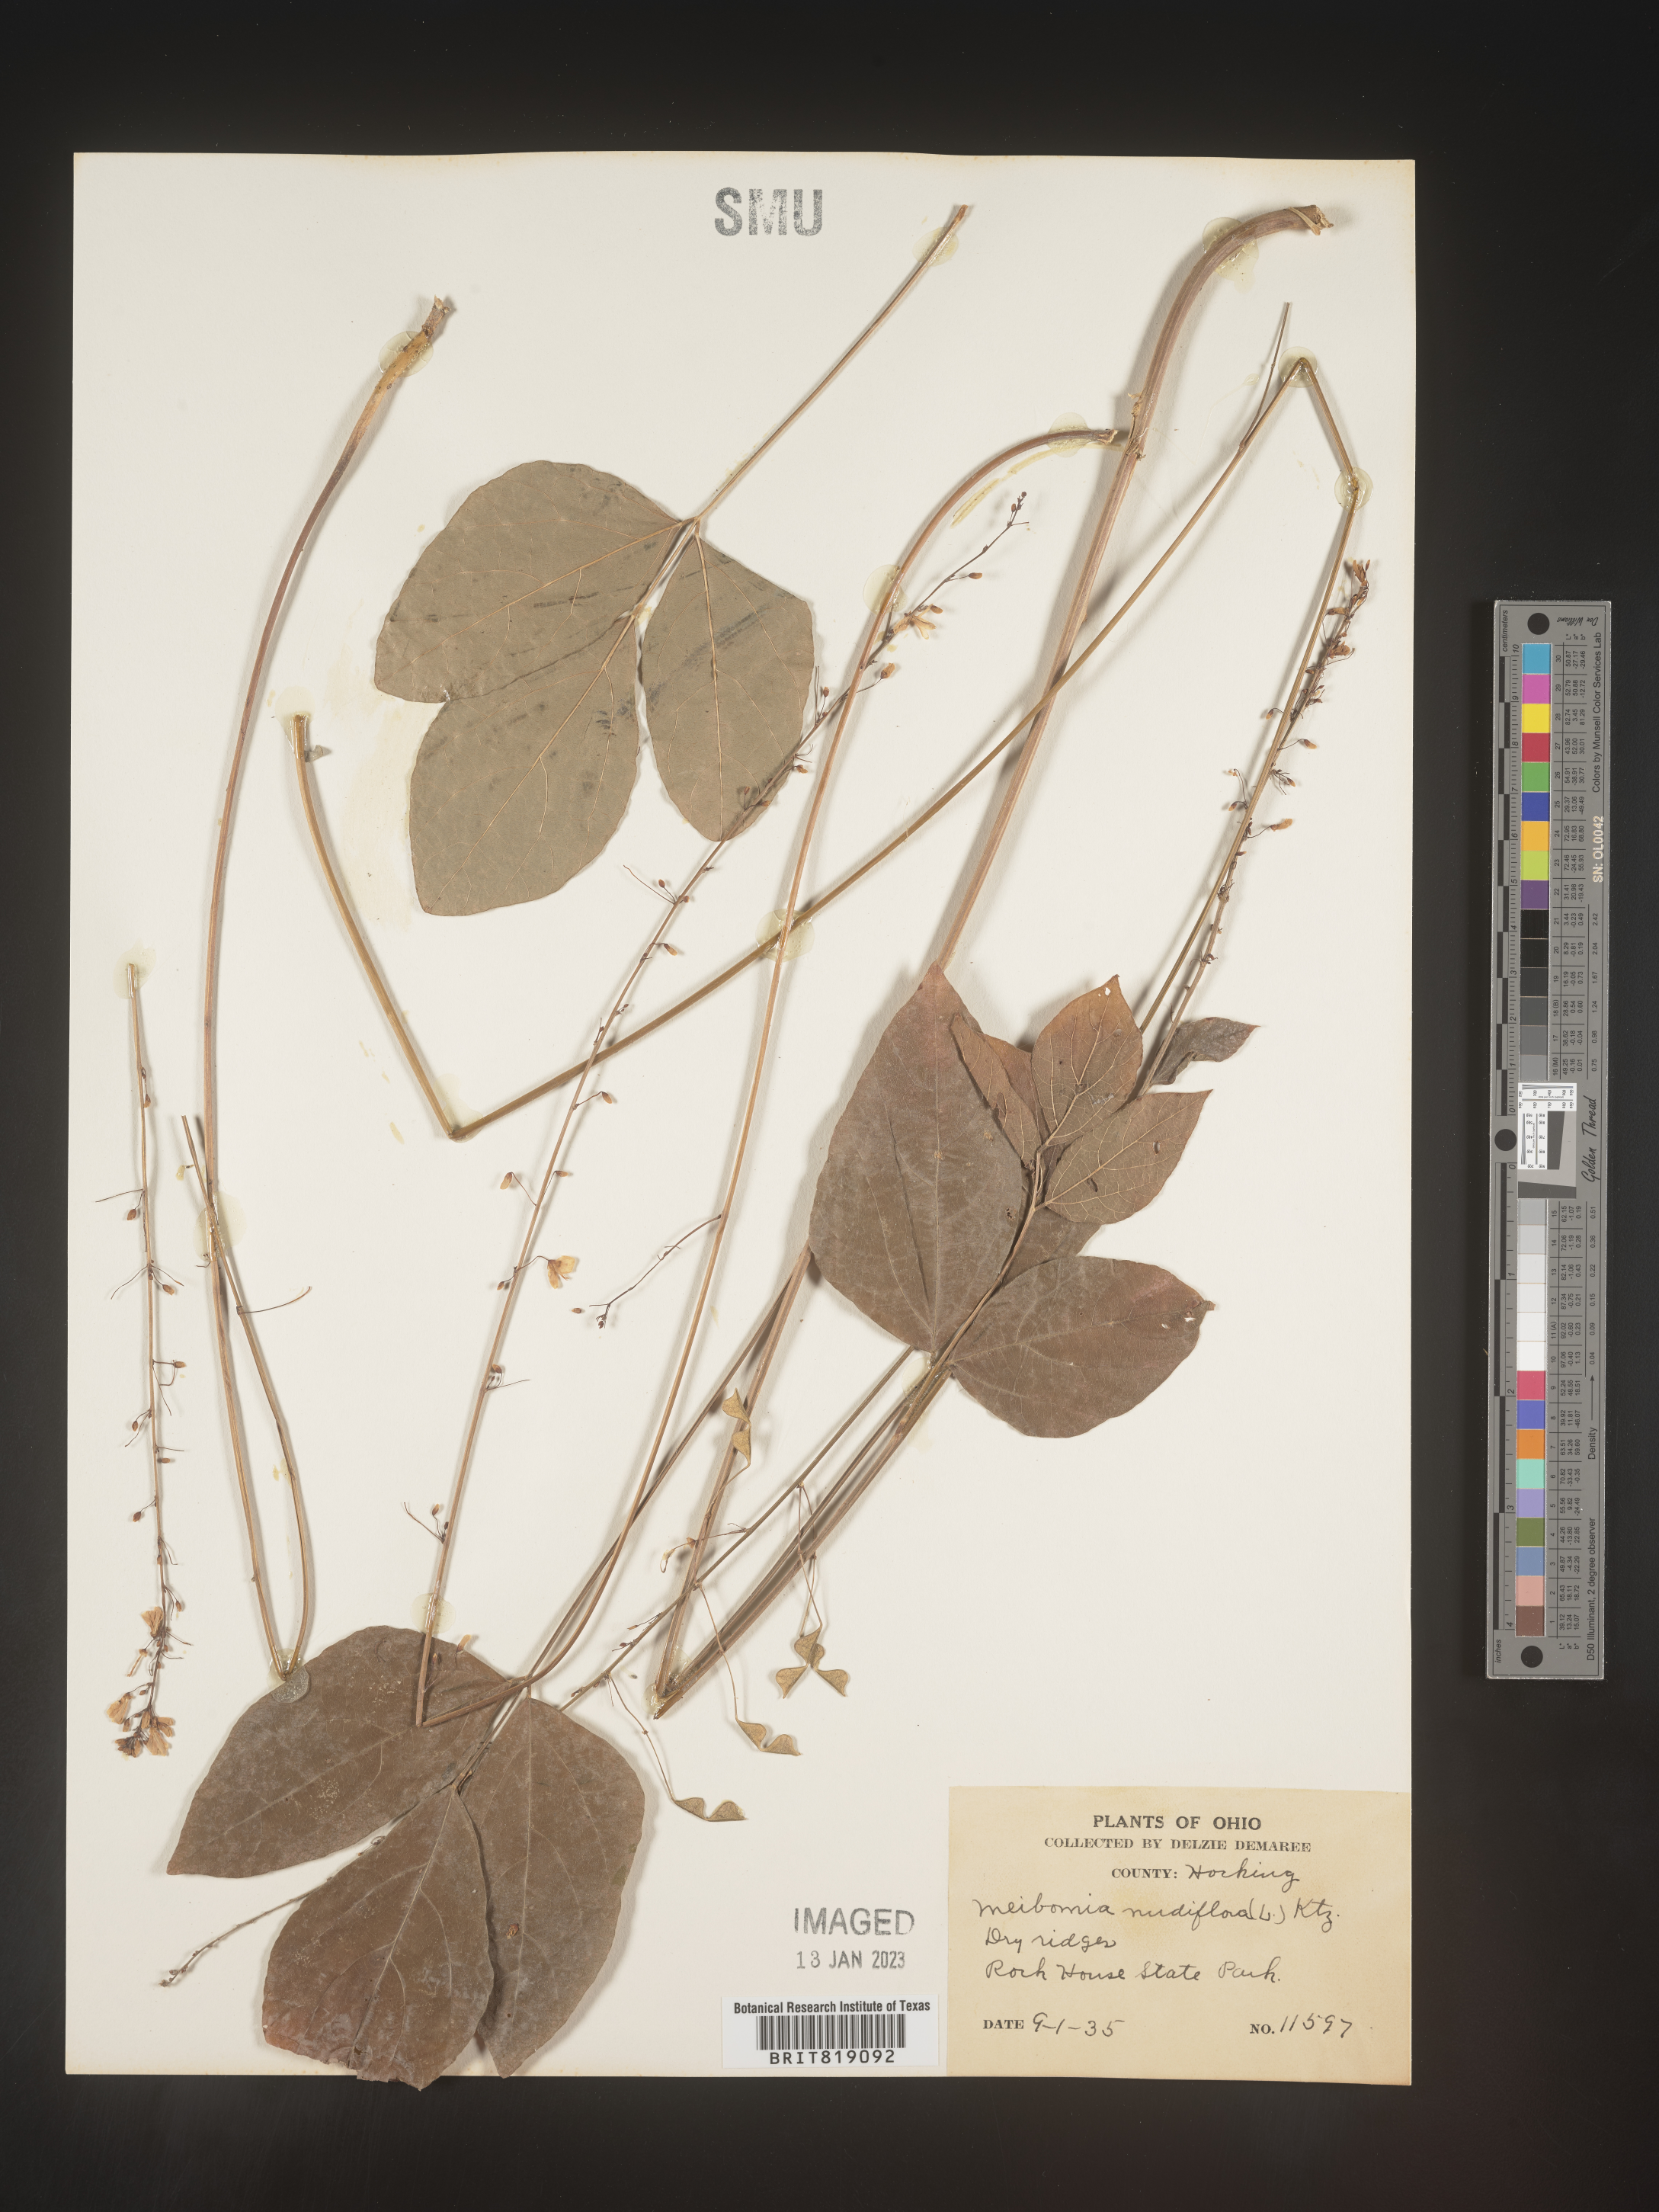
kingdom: Plantae
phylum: Tracheophyta
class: Magnoliopsida
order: Fabales
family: Fabaceae
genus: Hylodesmum
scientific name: Hylodesmum nudiflorum
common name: Bare-stemmed tick-trefoil
